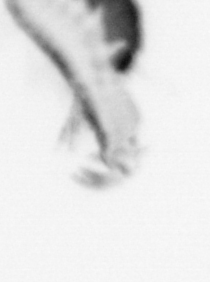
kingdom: Animalia
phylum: Annelida
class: Polychaeta
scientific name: Polychaeta
